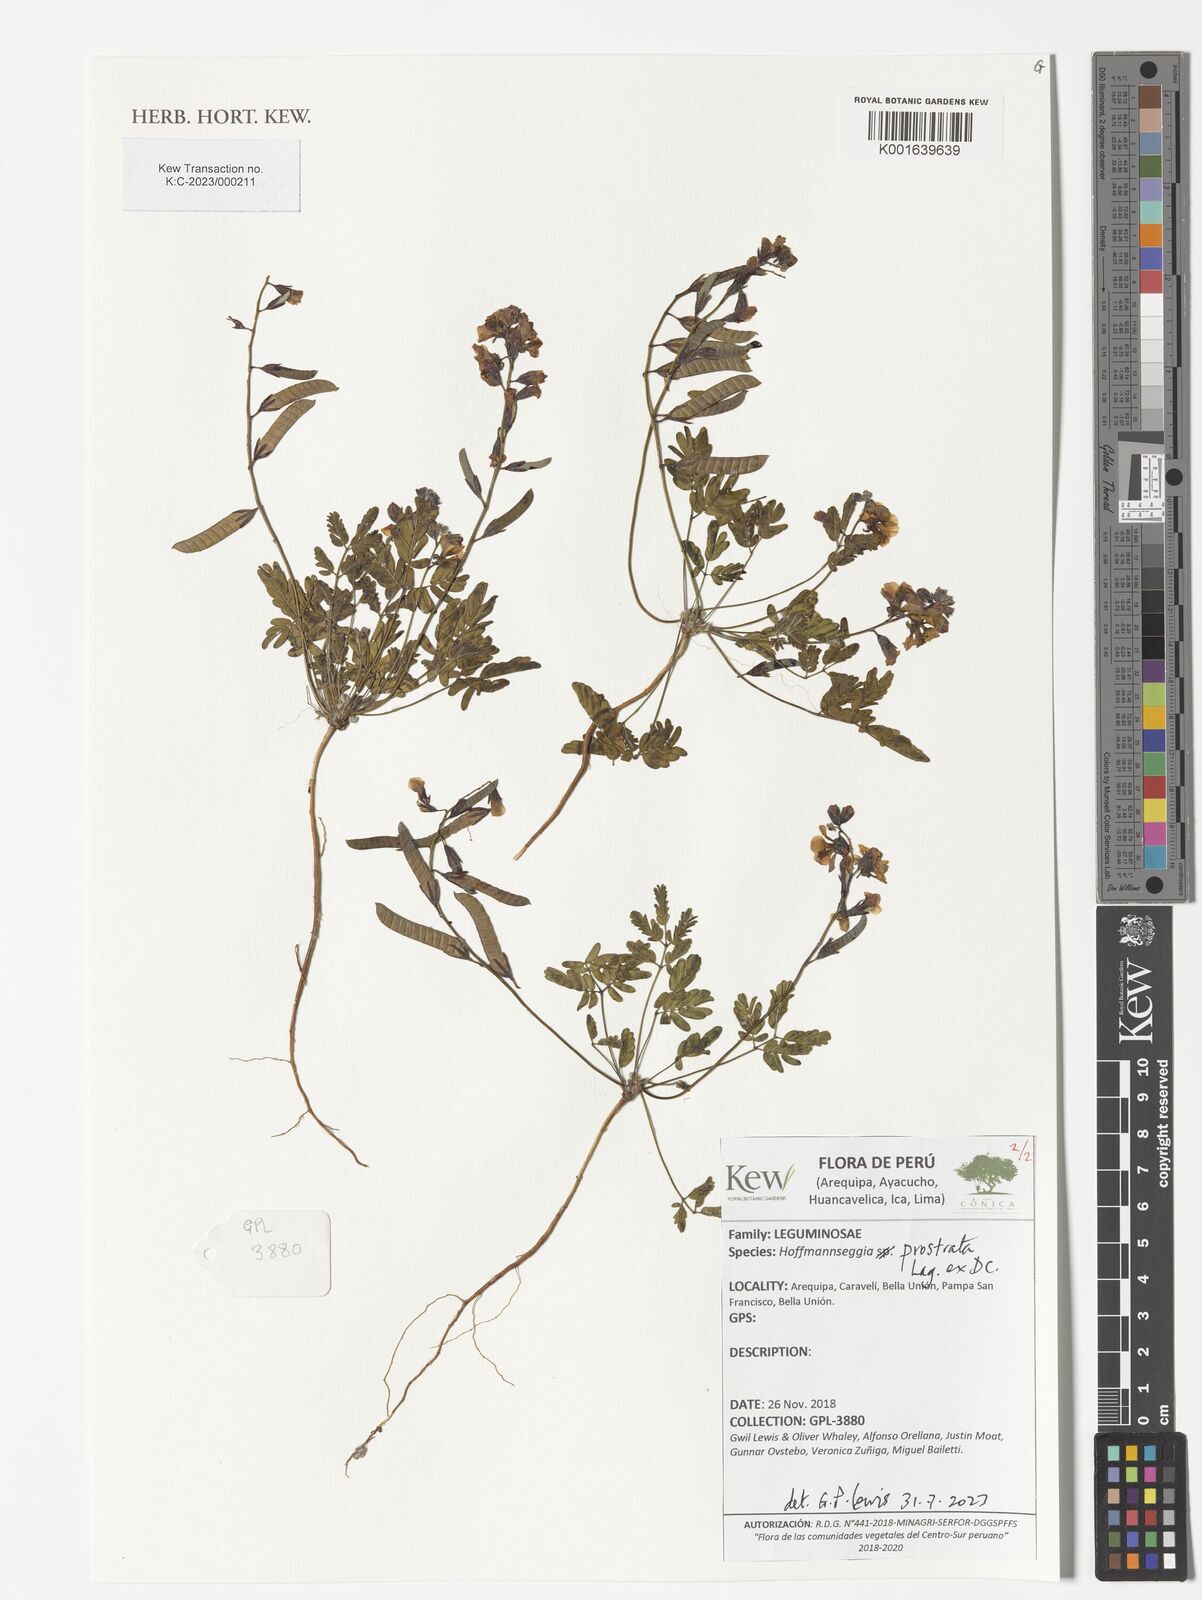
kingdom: Plantae
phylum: Tracheophyta
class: Magnoliopsida
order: Fabales
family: Fabaceae
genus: Hoffmannseggia
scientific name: Hoffmannseggia prostrata
